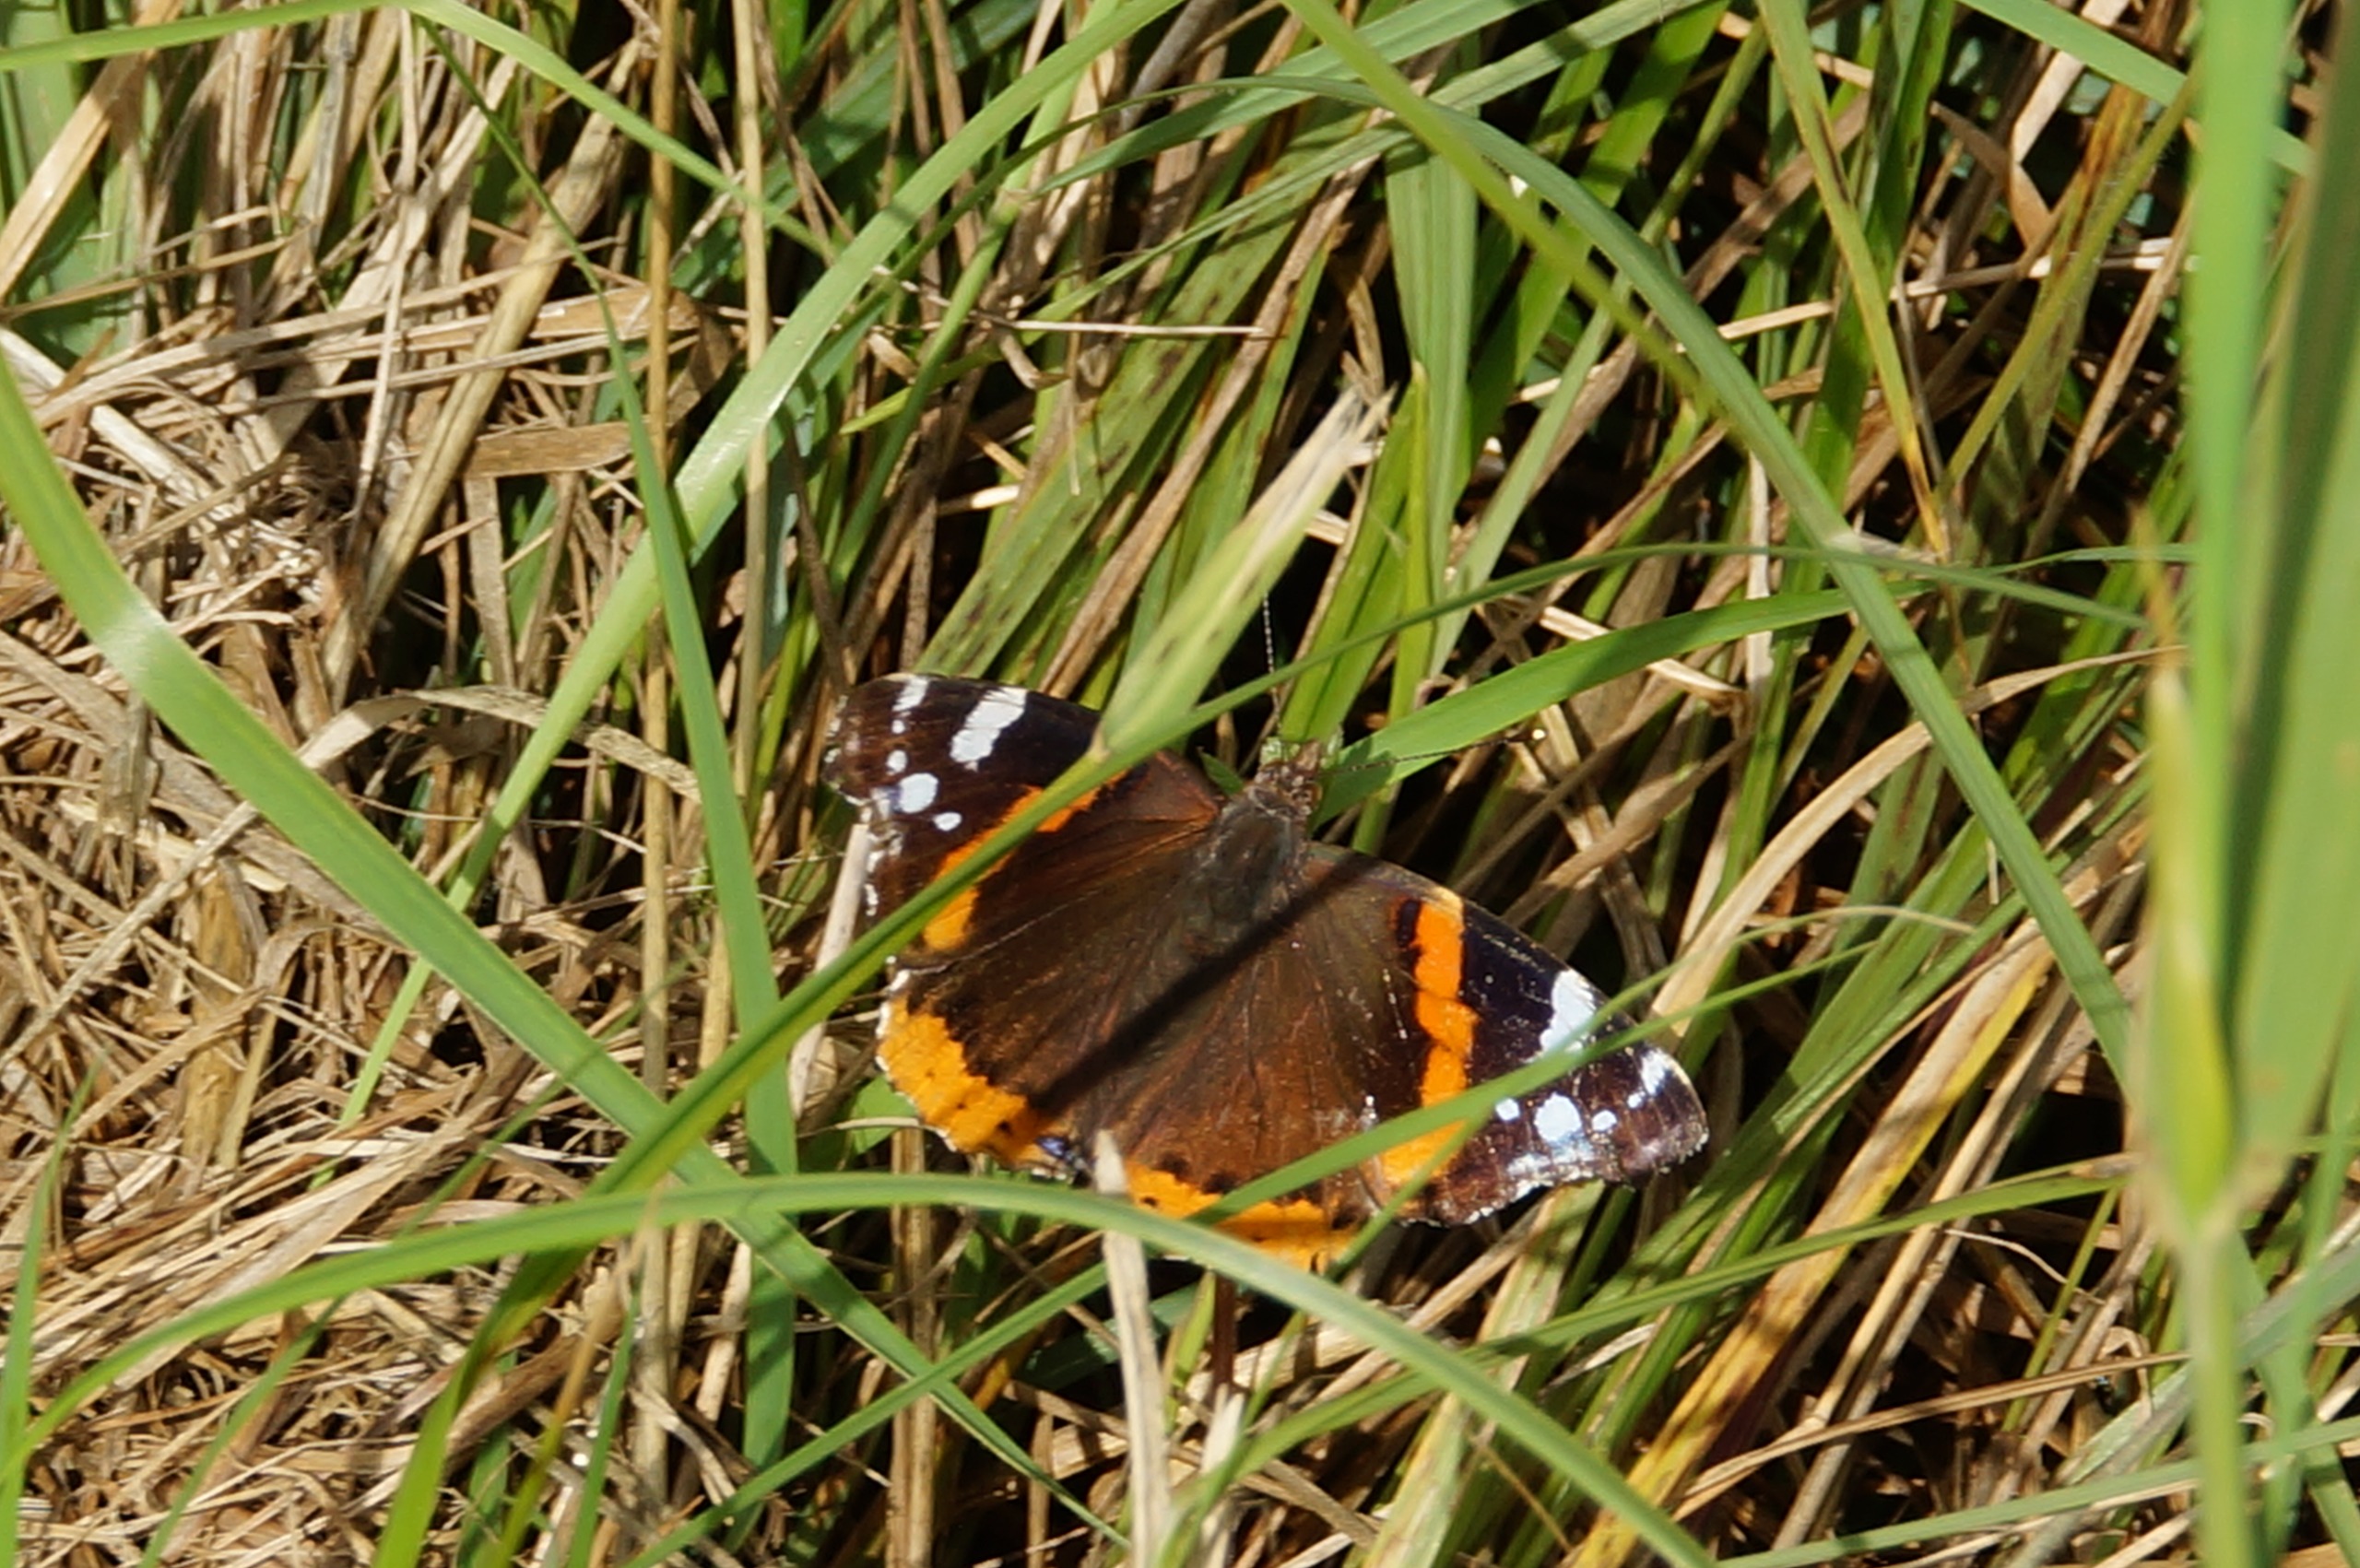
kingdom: Animalia
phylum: Arthropoda
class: Insecta
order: Lepidoptera
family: Nymphalidae
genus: Vanessa
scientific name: Vanessa atalanta
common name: Admiral
